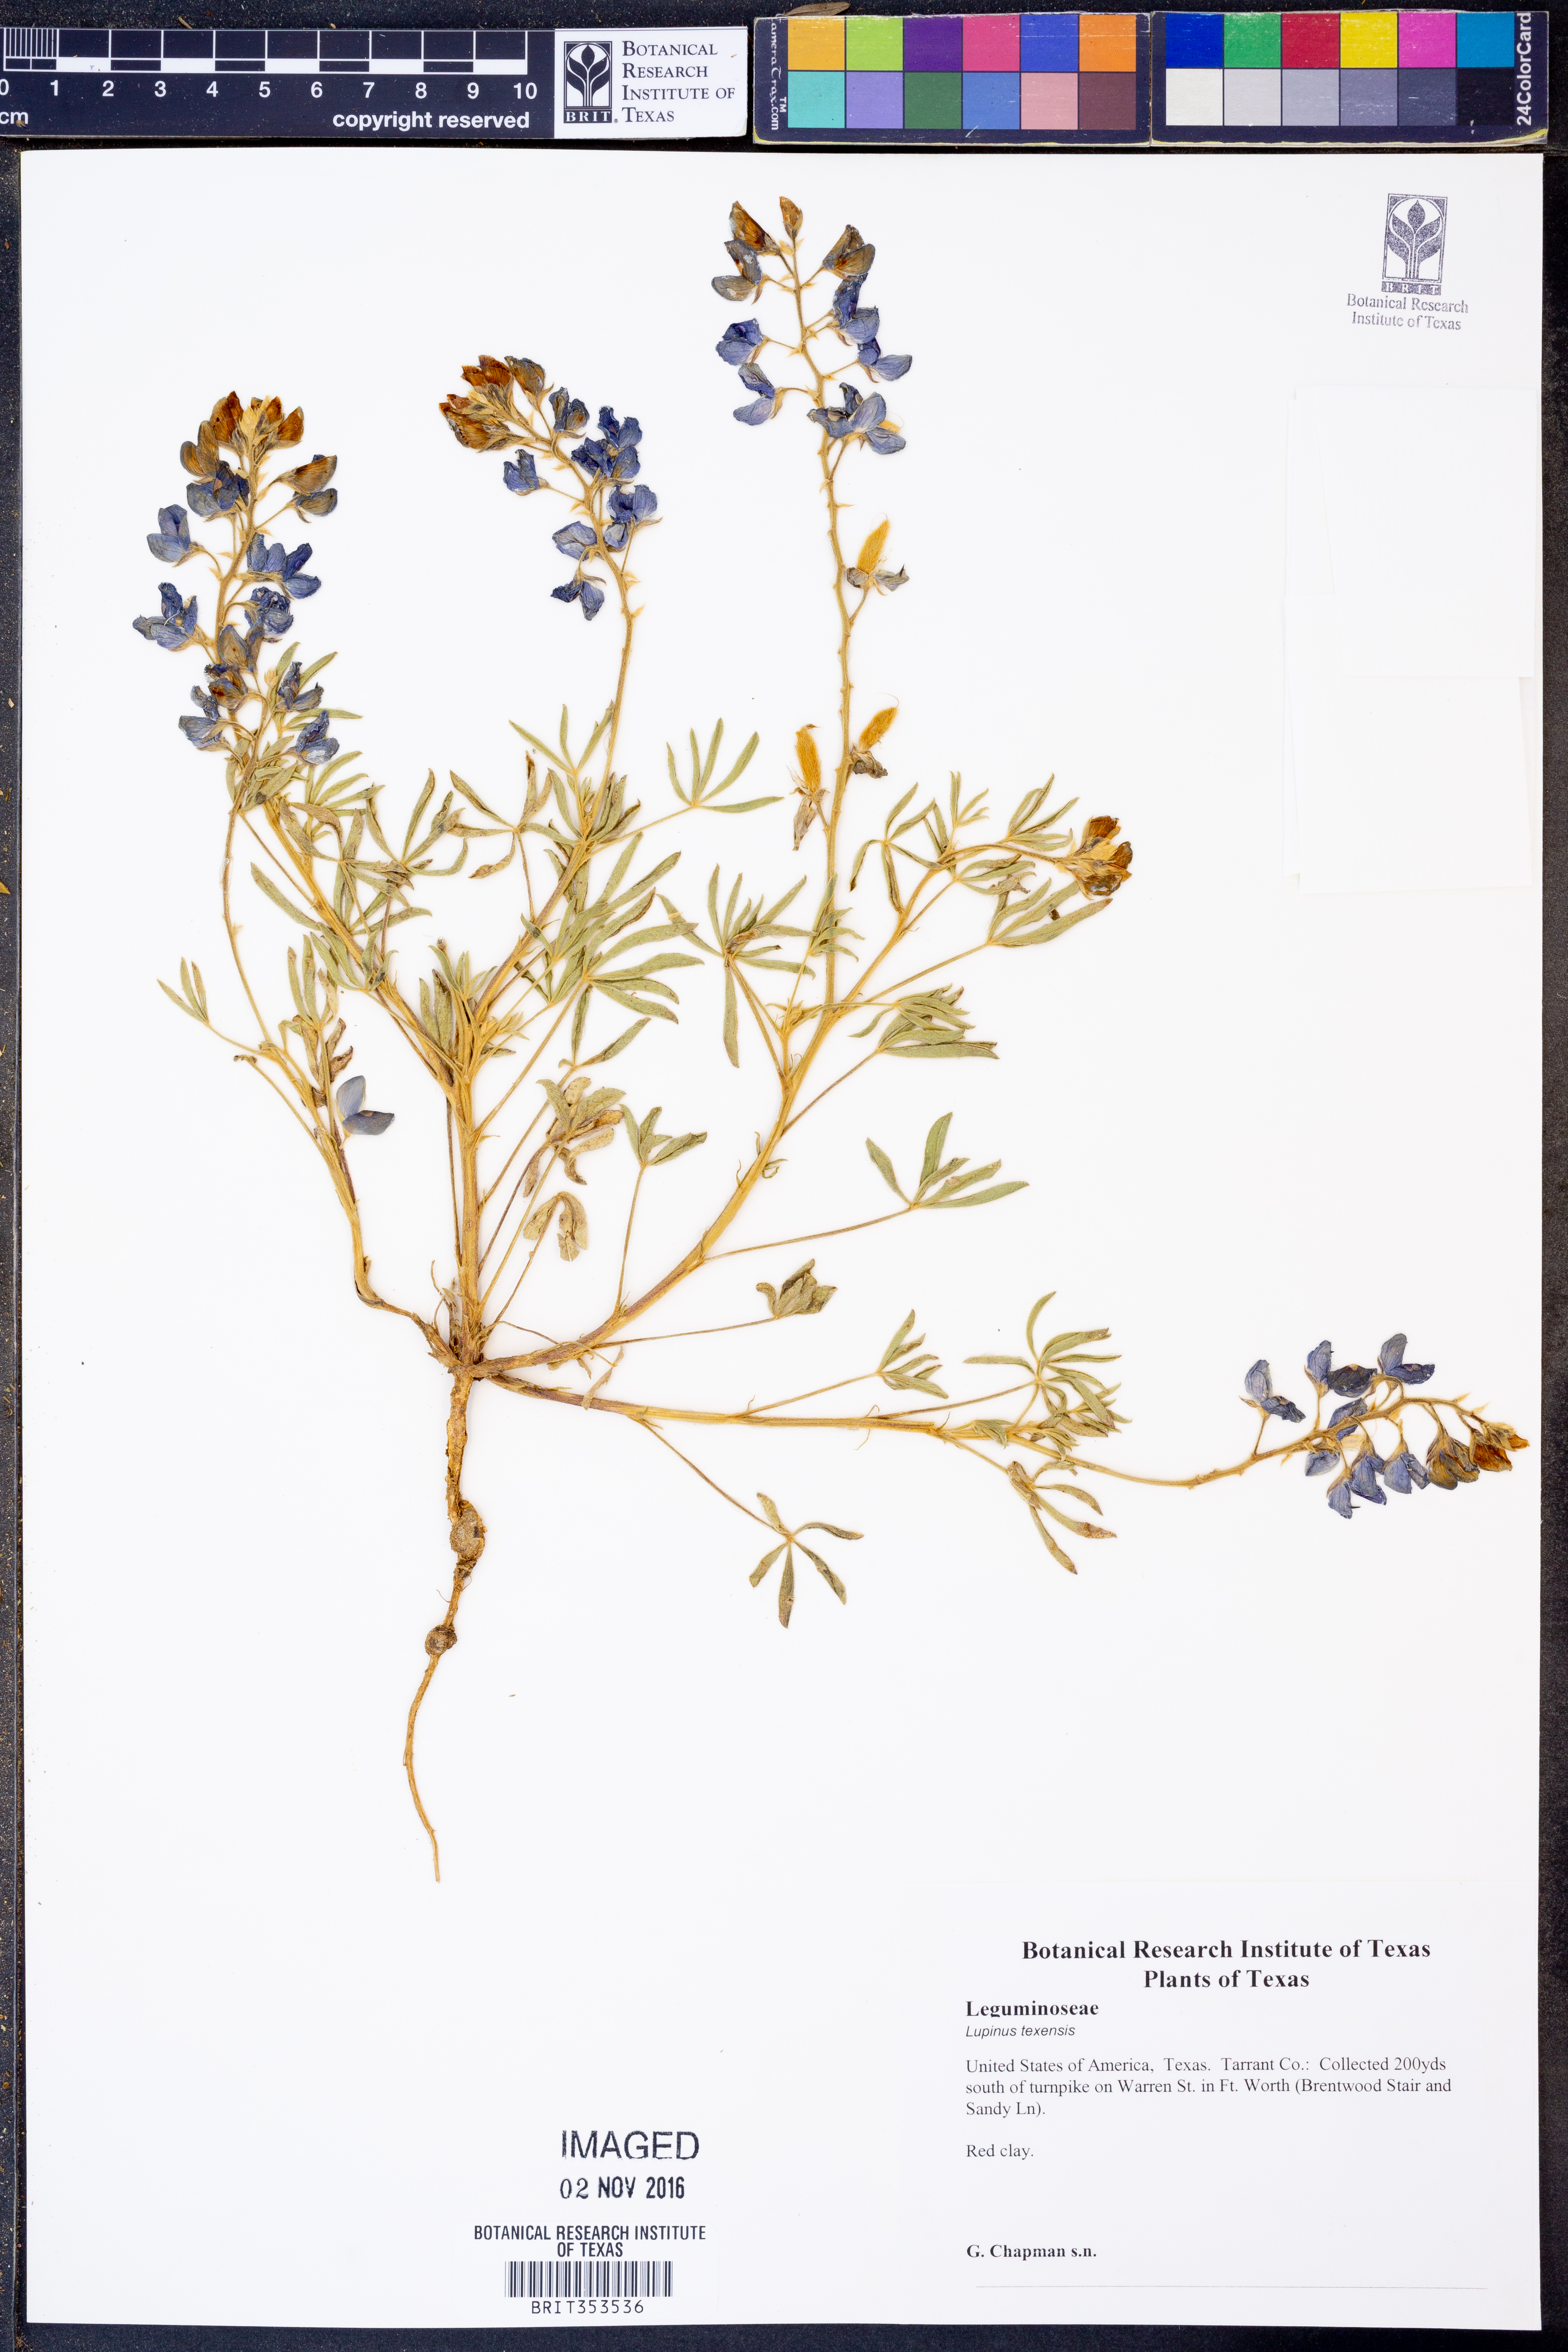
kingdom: Plantae
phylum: Tracheophyta
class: Magnoliopsida
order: Fabales
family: Fabaceae
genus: Lupinus
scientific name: Lupinus texensis
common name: Texas bluebonnet
